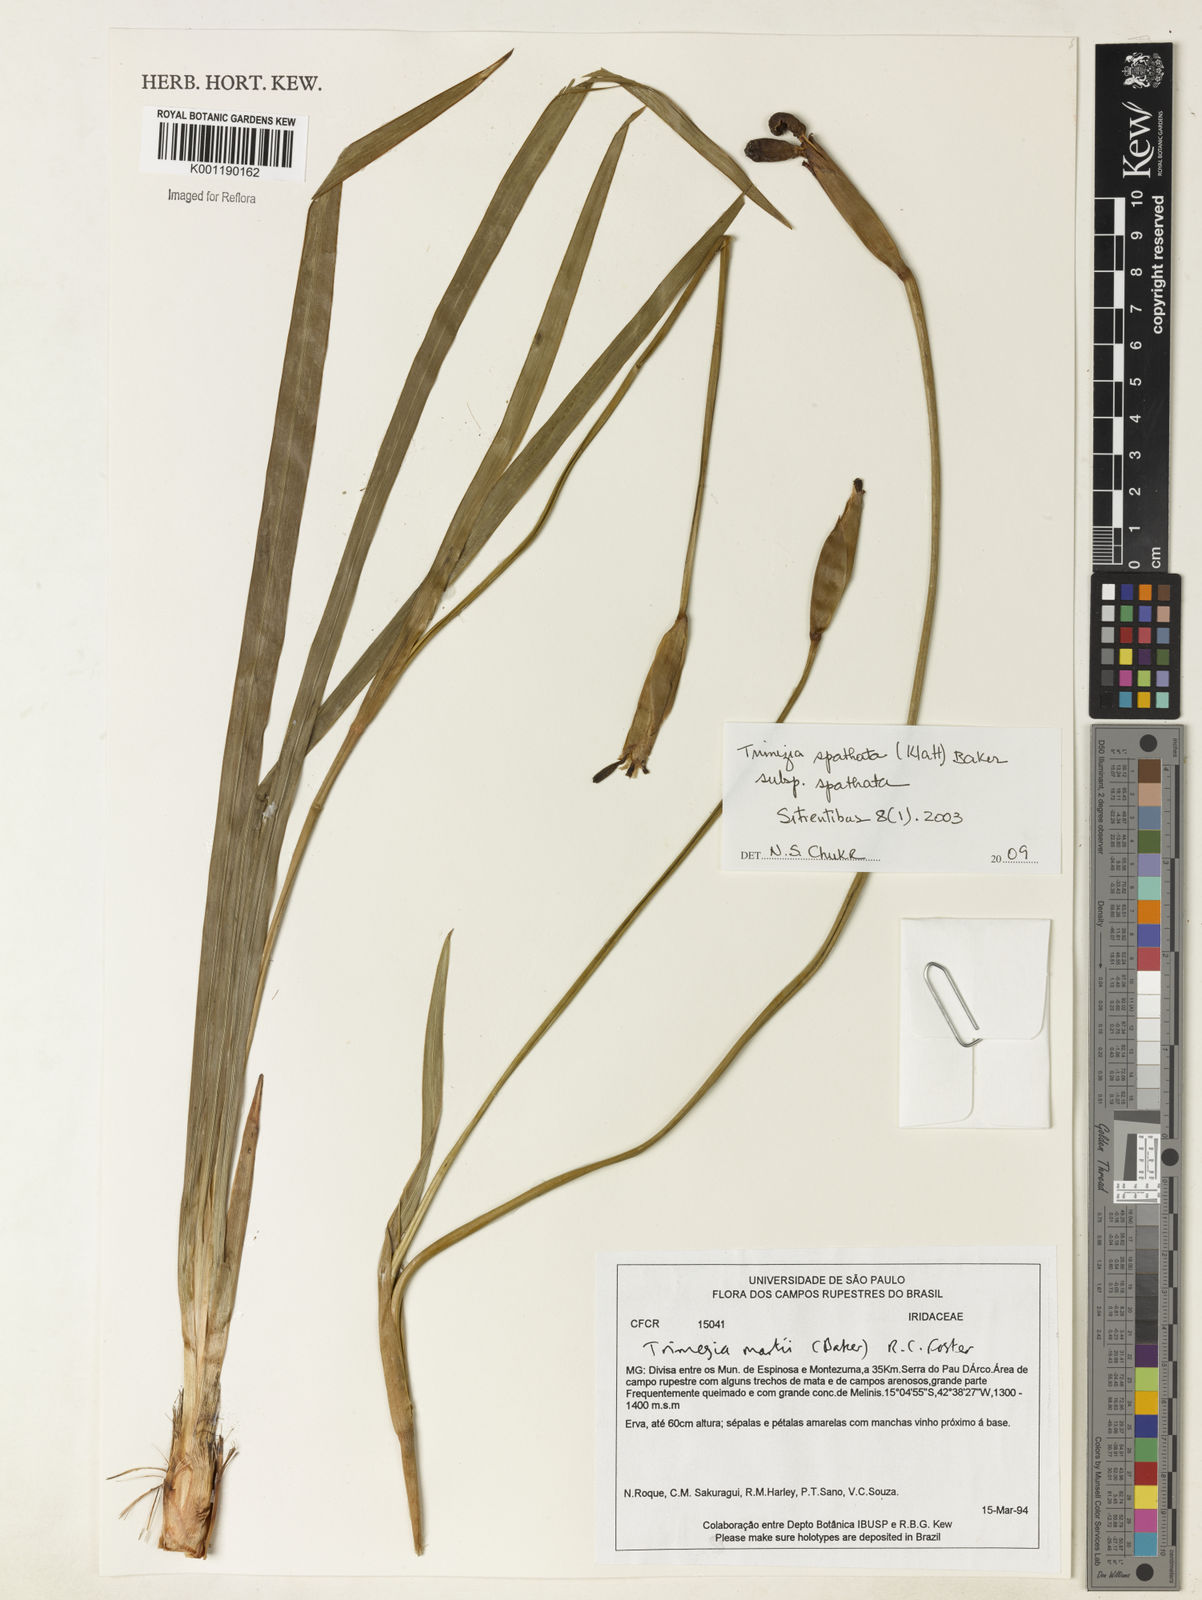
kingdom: Plantae
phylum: Tracheophyta
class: Liliopsida
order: Asparagales
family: Iridaceae
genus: Trimezia
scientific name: Trimezia spathata
